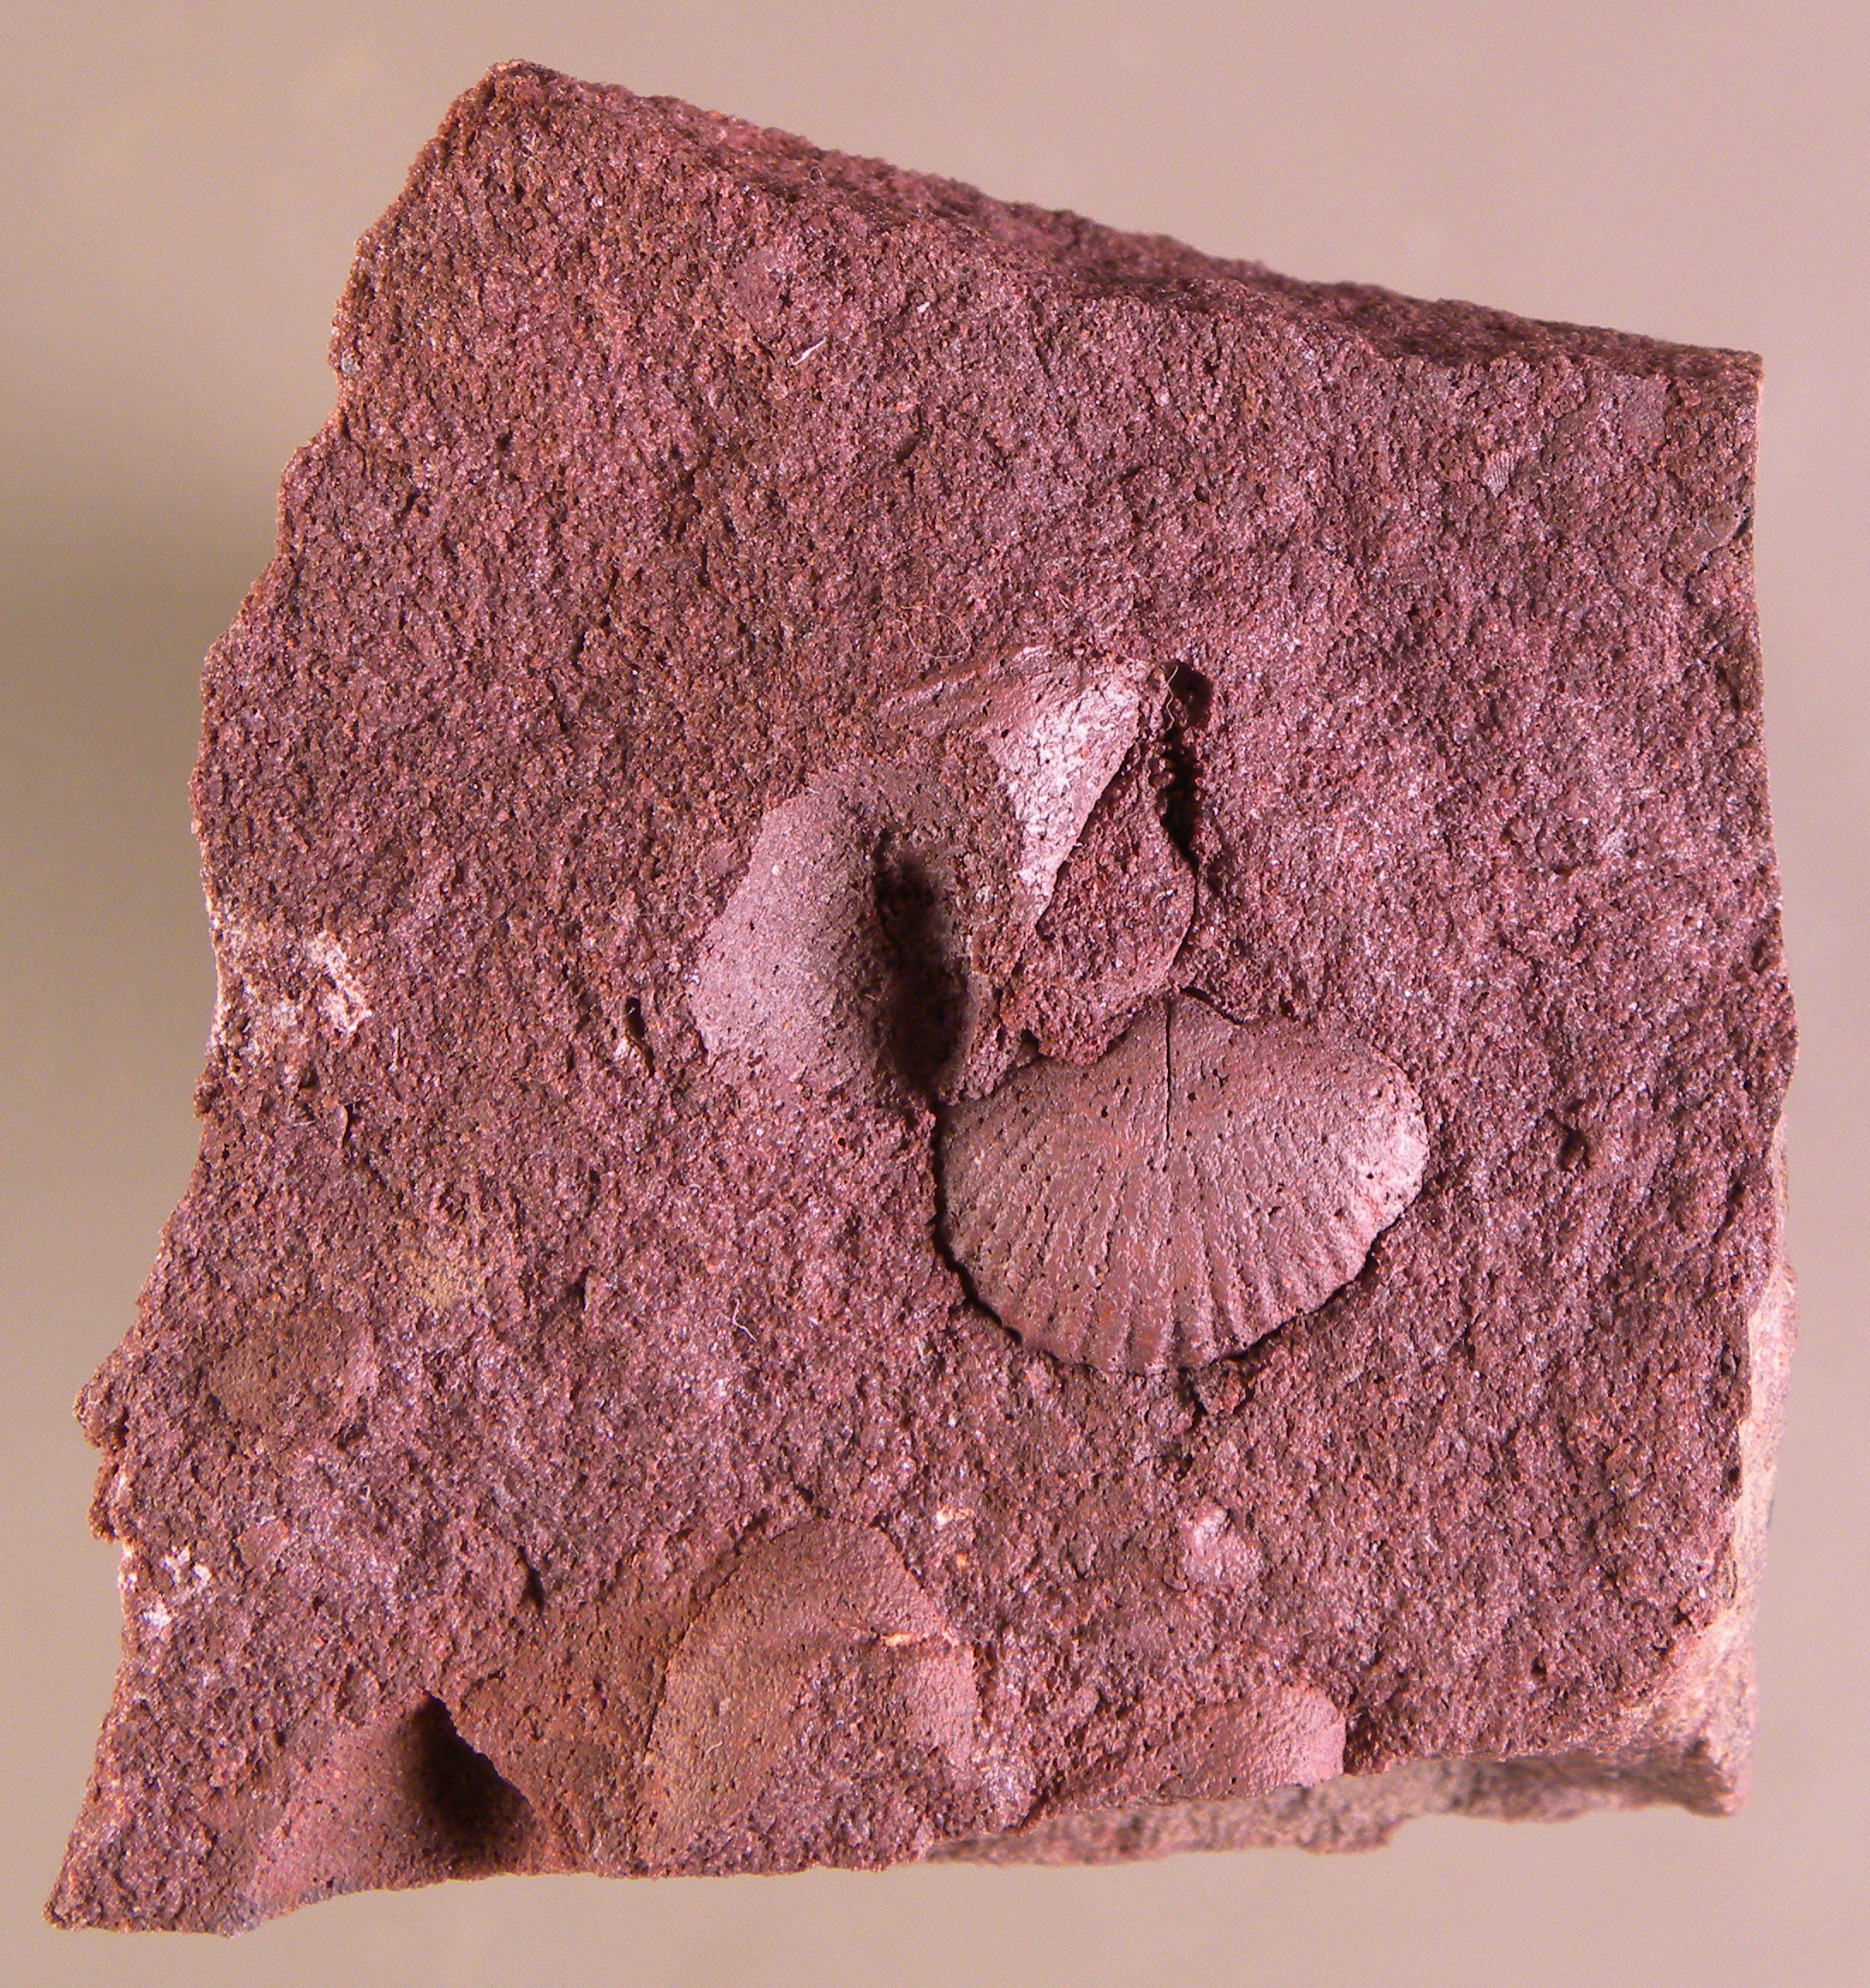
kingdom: Animalia
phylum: Brachiopoda
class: Rhynchonellata
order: Terebratulida
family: Mutationellidae
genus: Mutationella
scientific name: Mutationella
